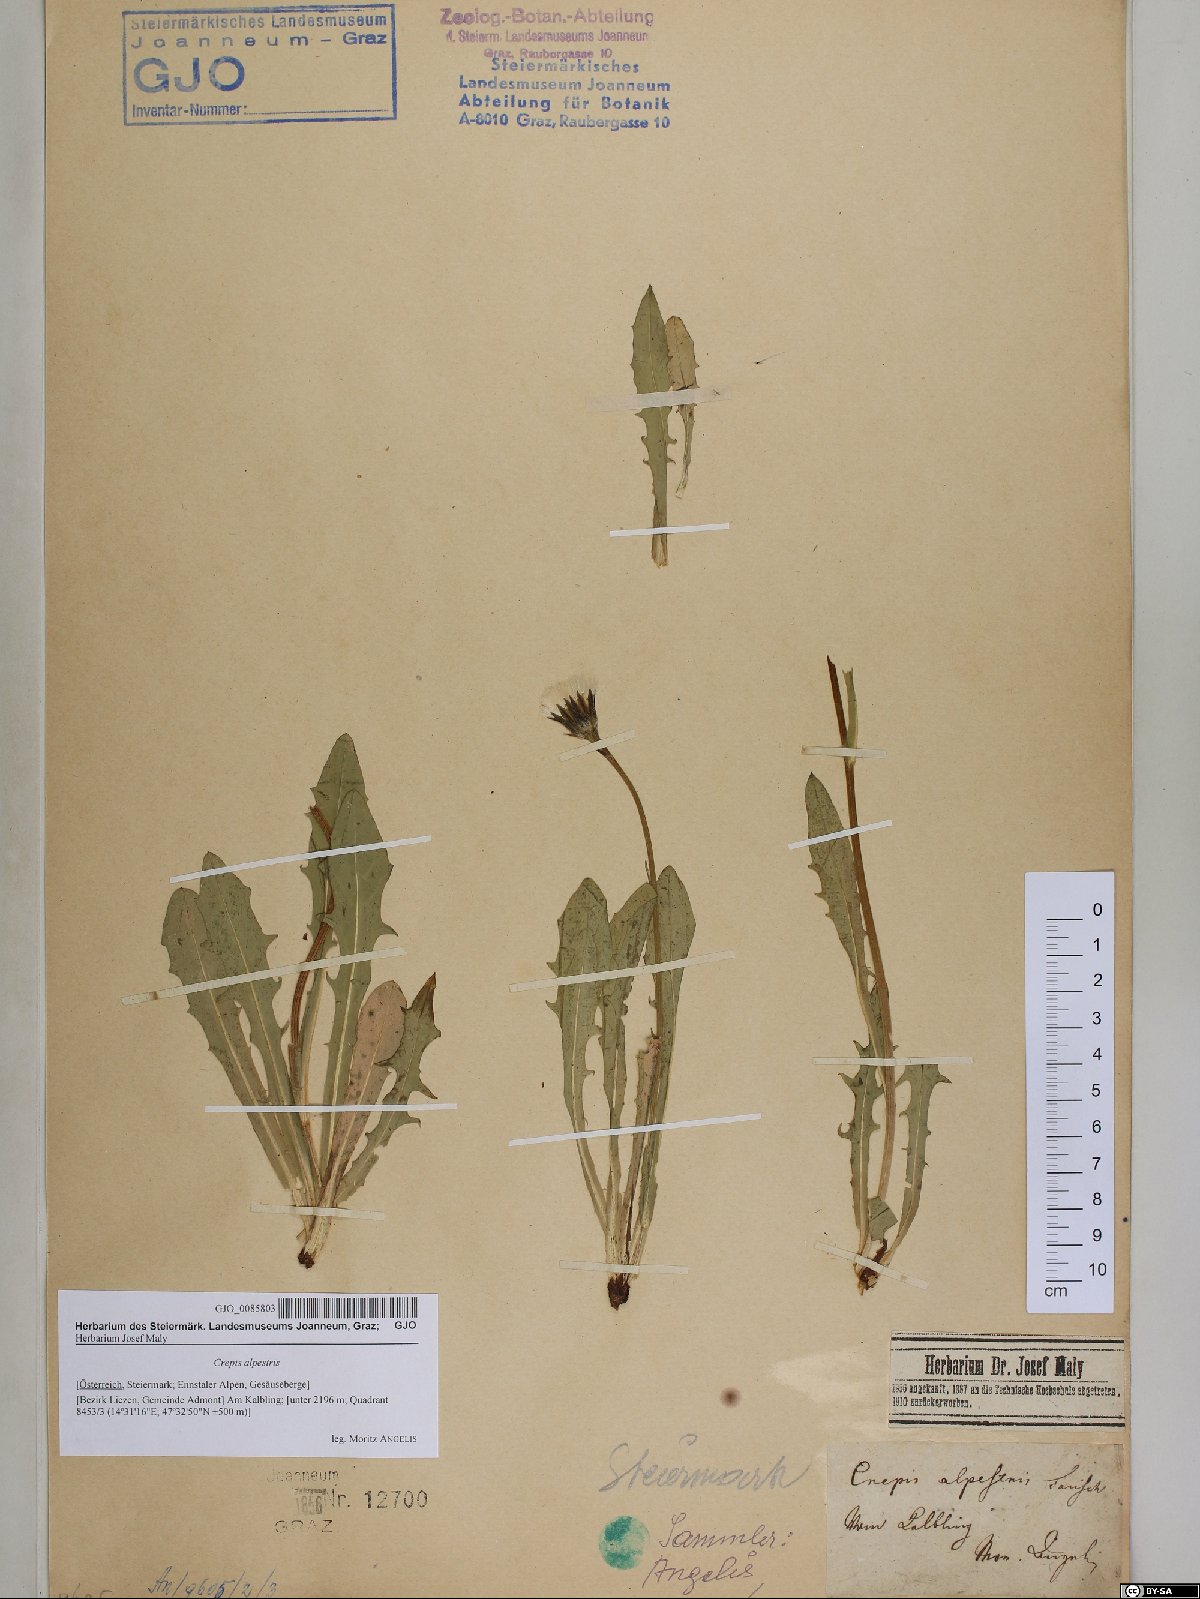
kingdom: Plantae
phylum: Tracheophyta
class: Magnoliopsida
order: Asterales
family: Asteraceae
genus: Crepis
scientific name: Crepis alpestris
